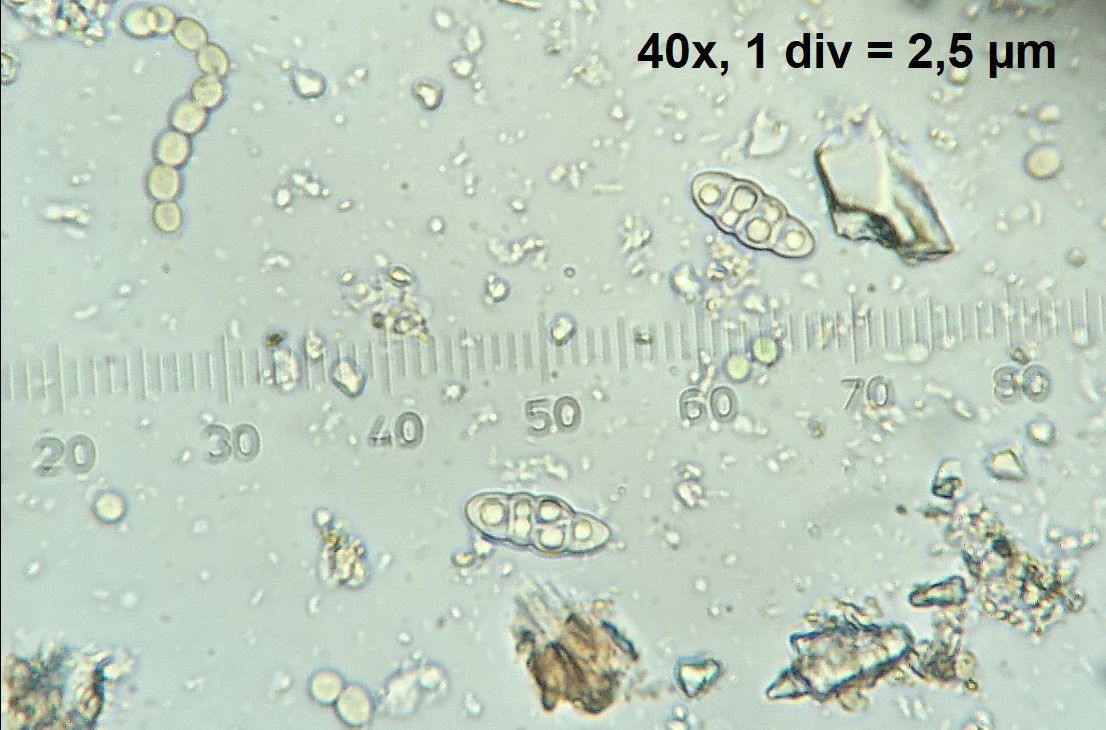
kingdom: Fungi
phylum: Ascomycota
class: Lecanoromycetes
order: Peltigerales
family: Collemataceae
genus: Enchylium
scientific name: Enchylium tenax
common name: tyk bævrelav
